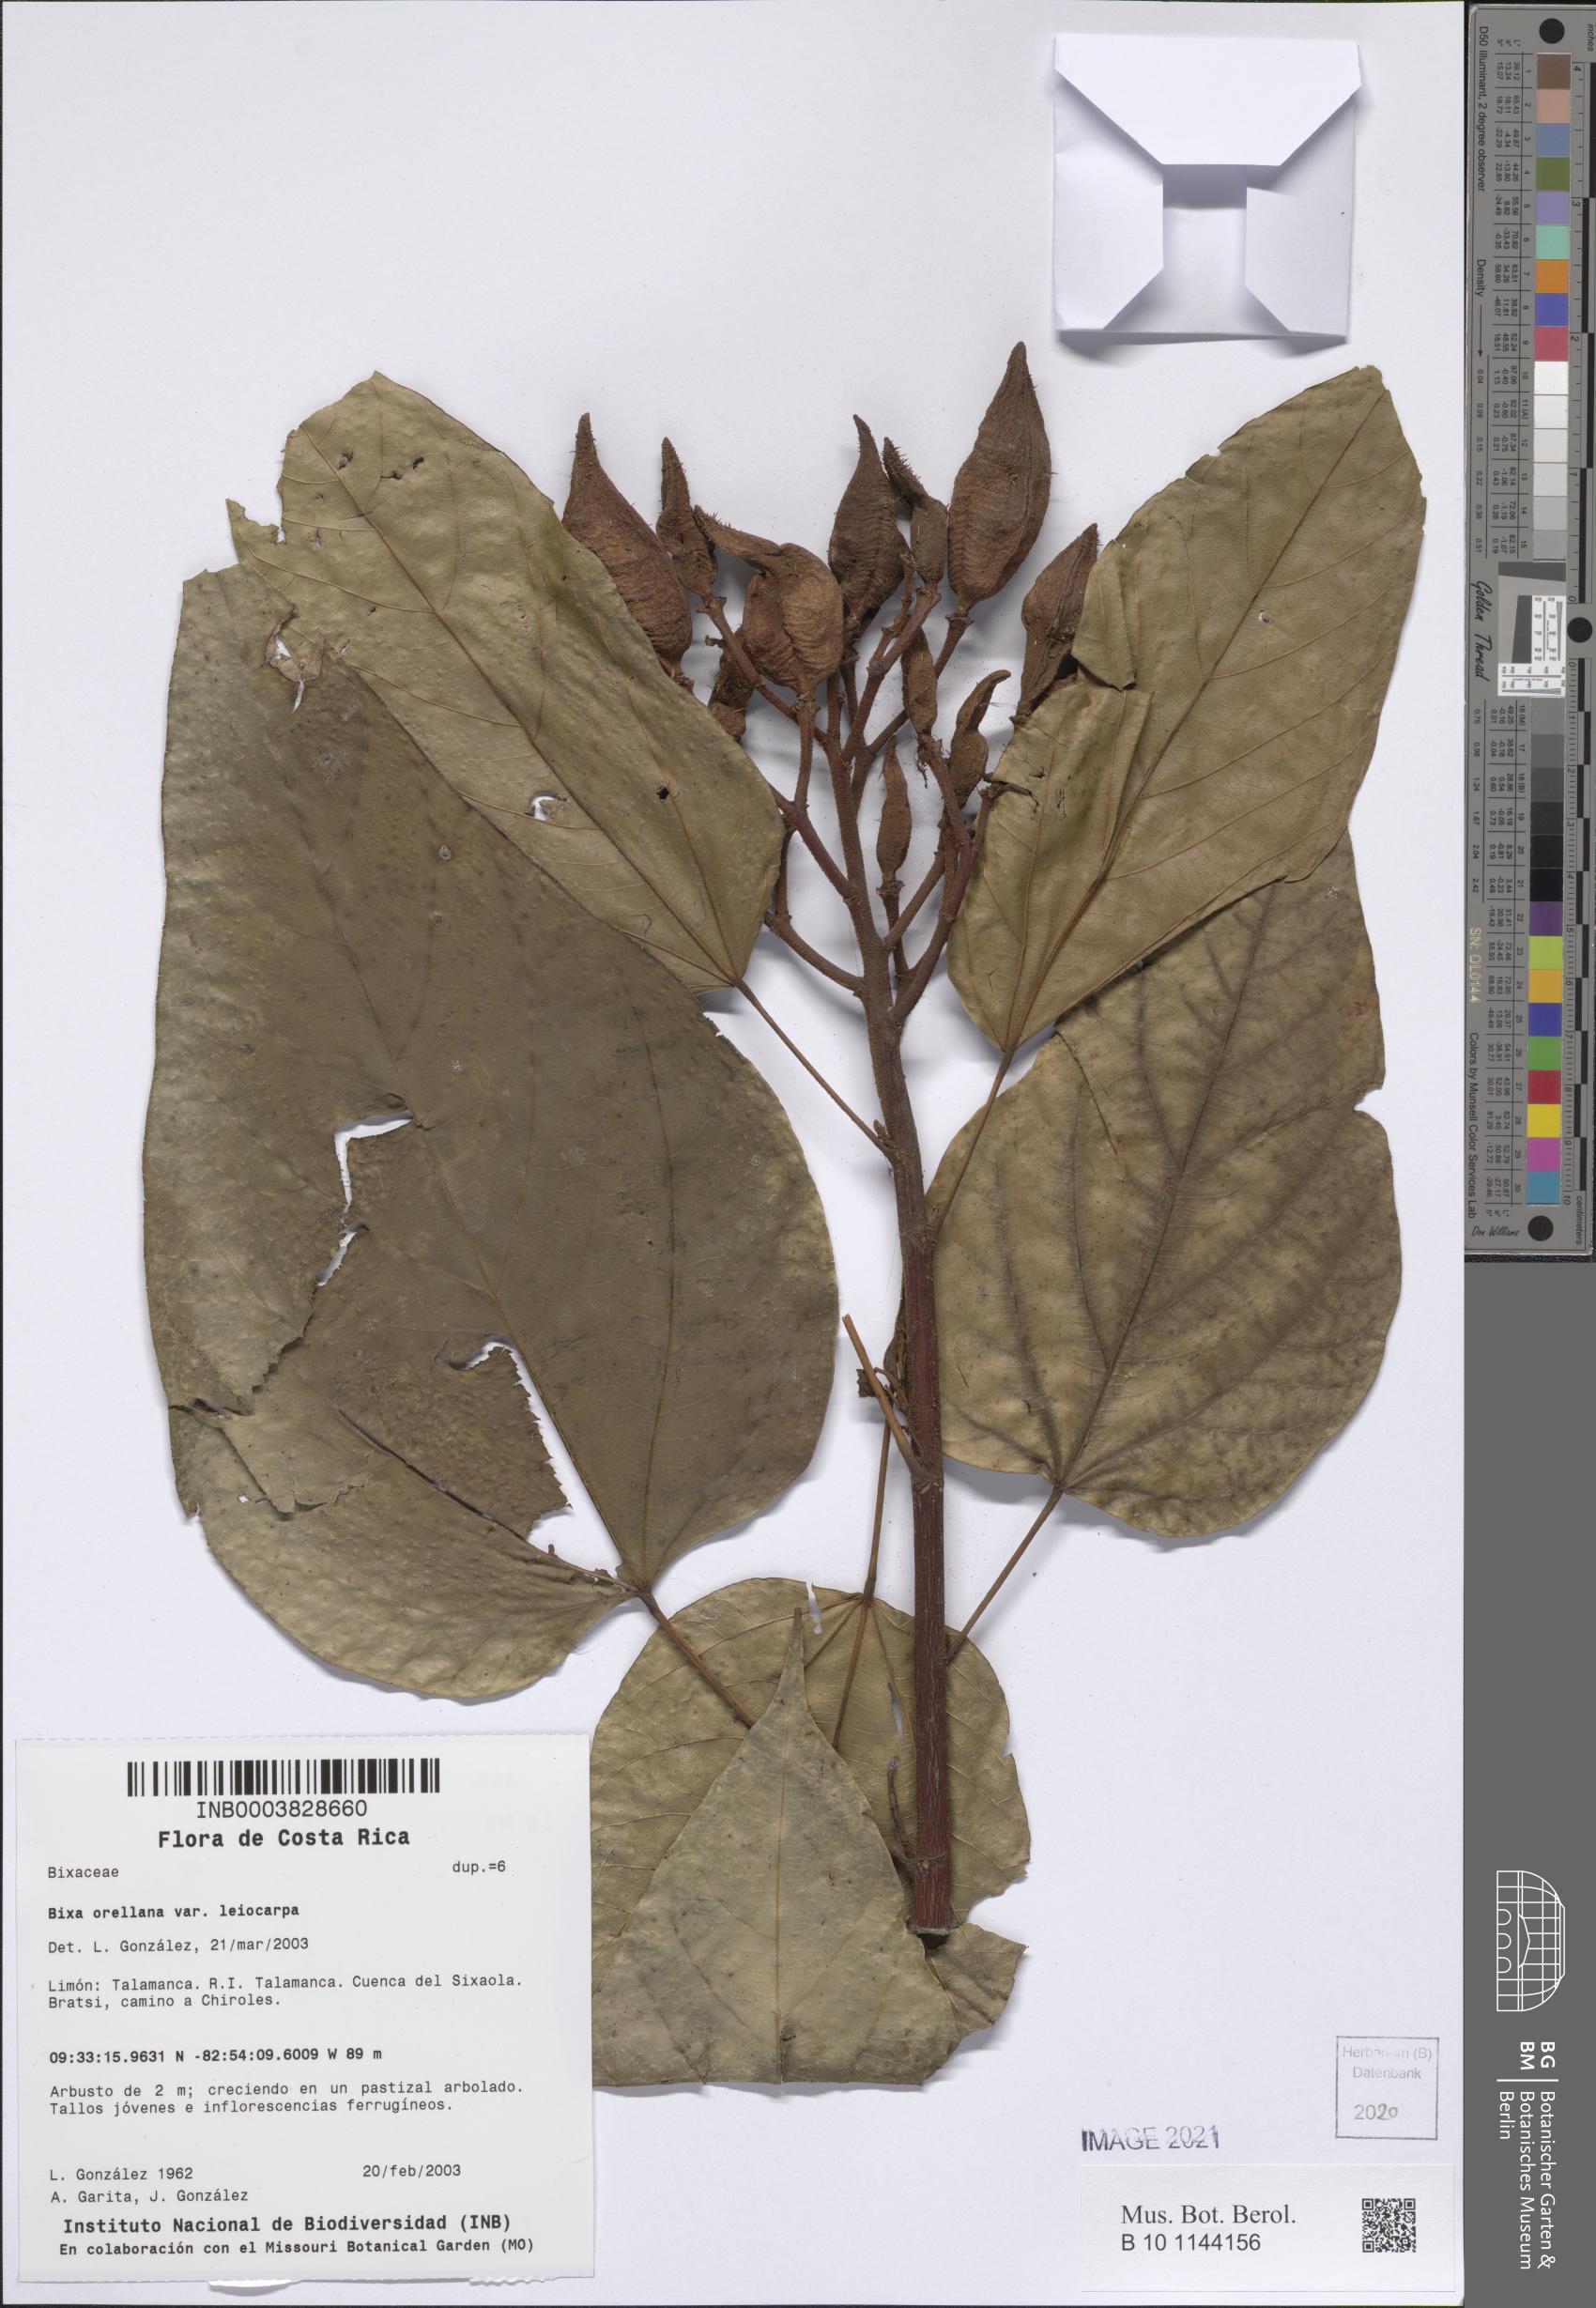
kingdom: Plantae
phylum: Tracheophyta
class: Magnoliopsida
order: Malvales
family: Bixaceae
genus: Bixa
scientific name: Bixa orellana
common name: Lipsticktree
